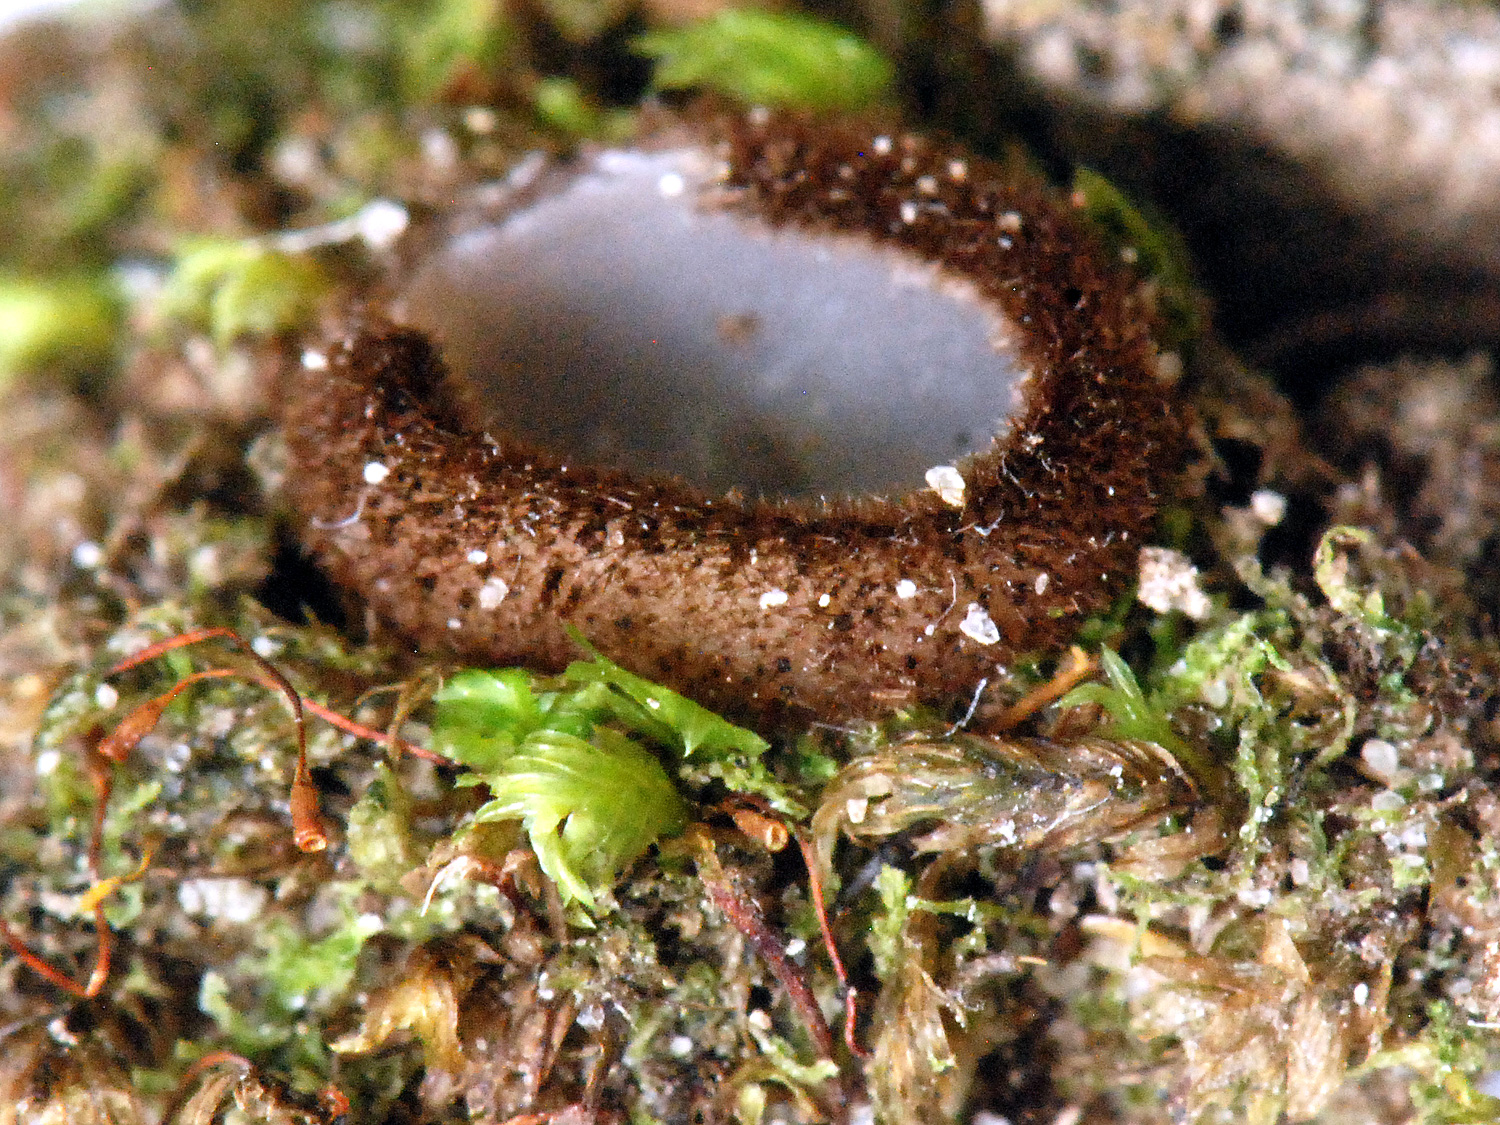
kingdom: Fungi
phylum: Ascomycota
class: Pezizomycetes
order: Pezizales
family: Pyronemataceae
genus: Humaria
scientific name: Humaria hemisphaerica
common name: halvkugleformet børstebæger
